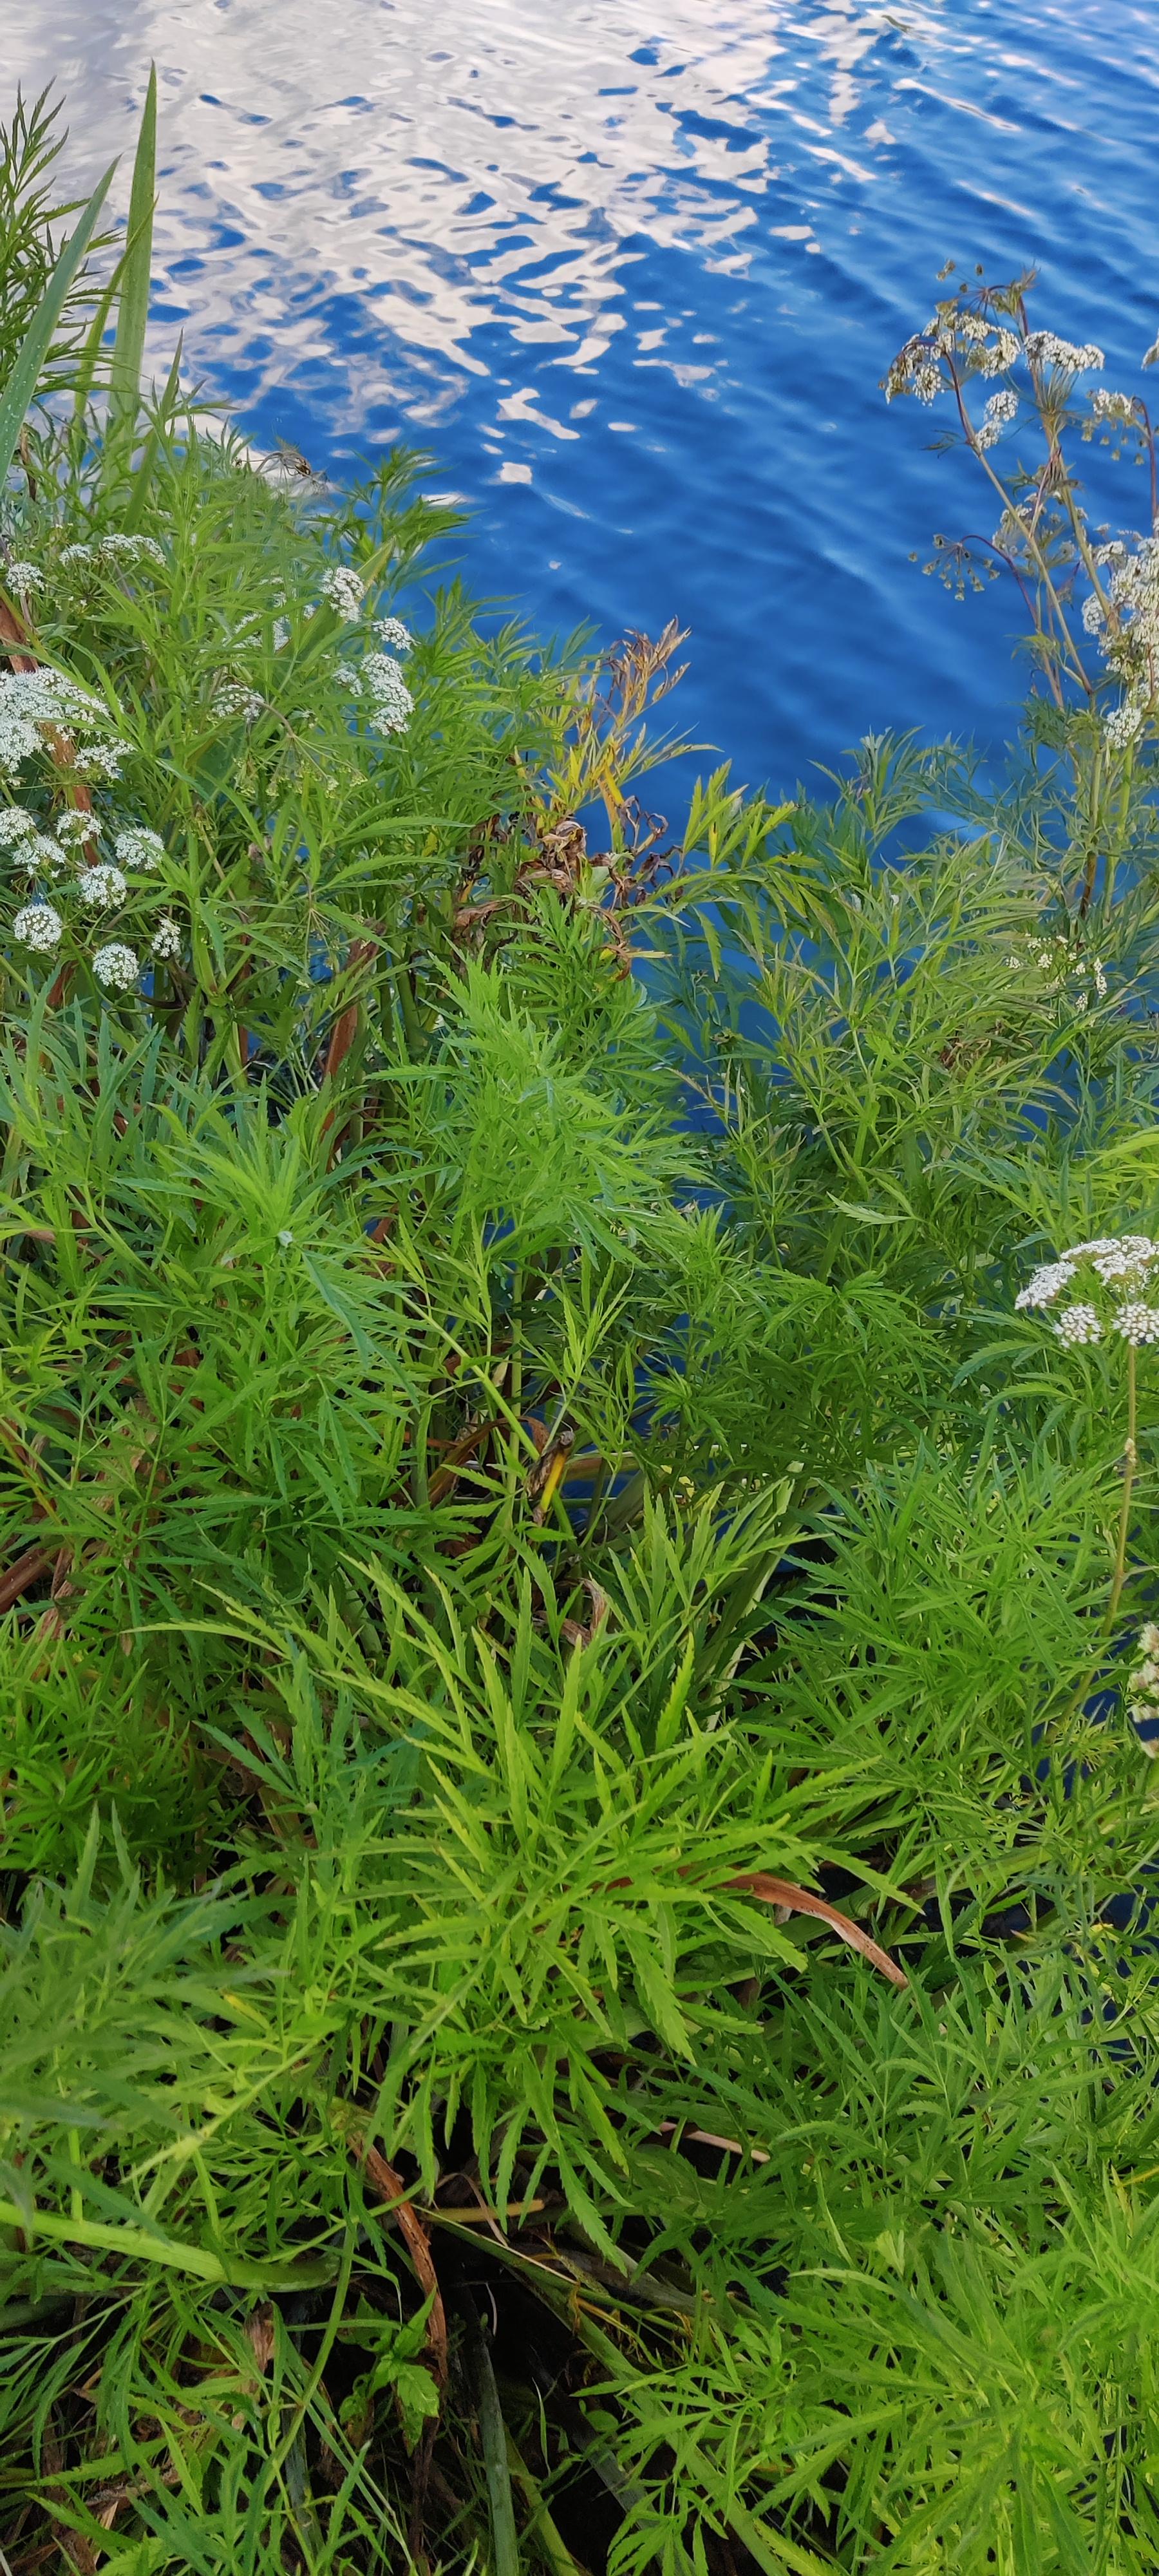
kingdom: Plantae
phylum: Tracheophyta
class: Magnoliopsida
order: Apiales
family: Apiaceae
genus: Cicuta
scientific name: Cicuta virosa
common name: Gifttyde
